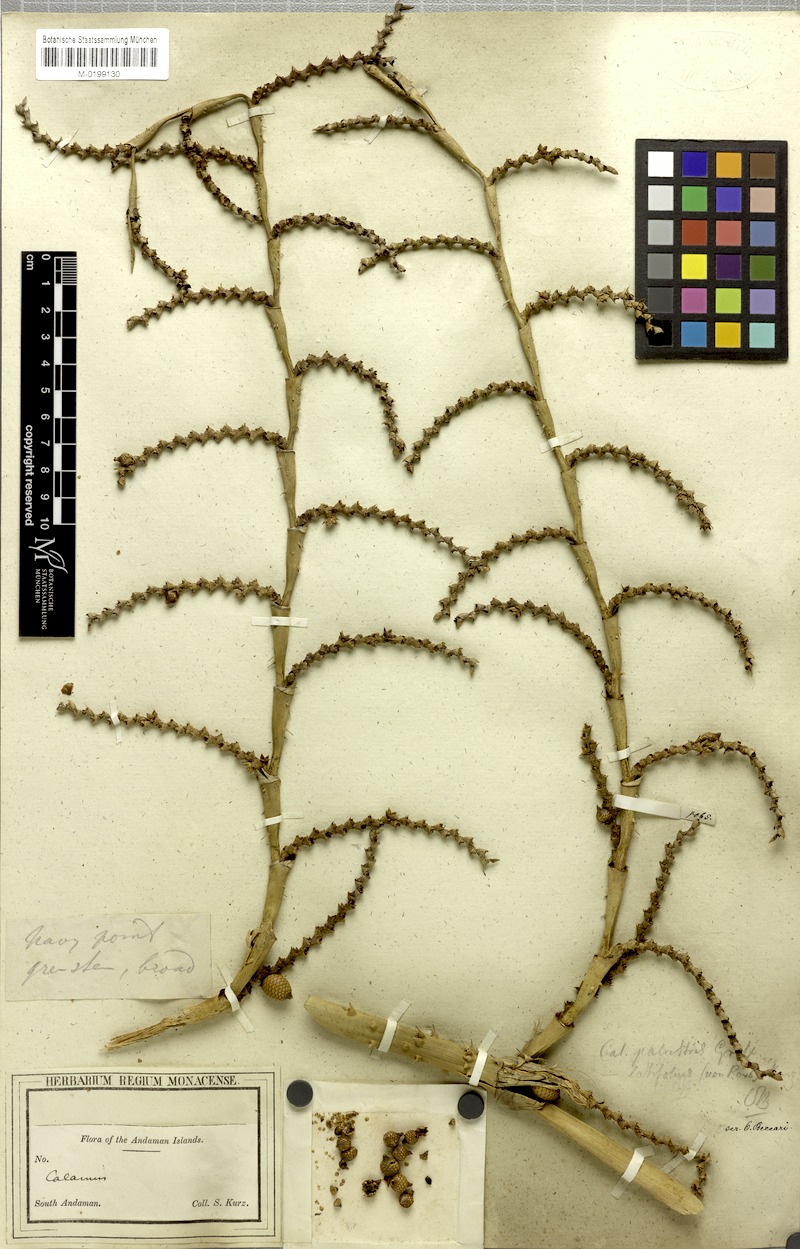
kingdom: Plantae
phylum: Tracheophyta
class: Liliopsida
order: Arecales
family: Arecaceae
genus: Calamus
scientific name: Calamus latifolius
